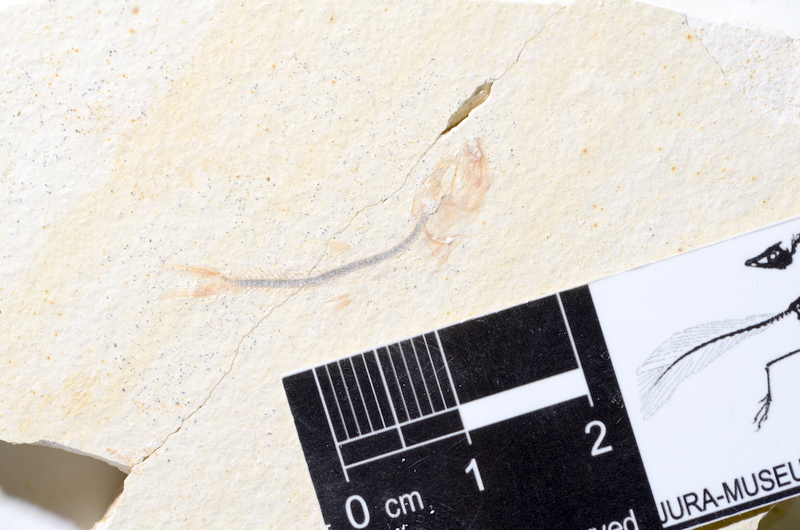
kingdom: Animalia
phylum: Chordata
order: Salmoniformes
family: Orthogonikleithridae
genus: Orthogonikleithrus
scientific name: Orthogonikleithrus hoelli
